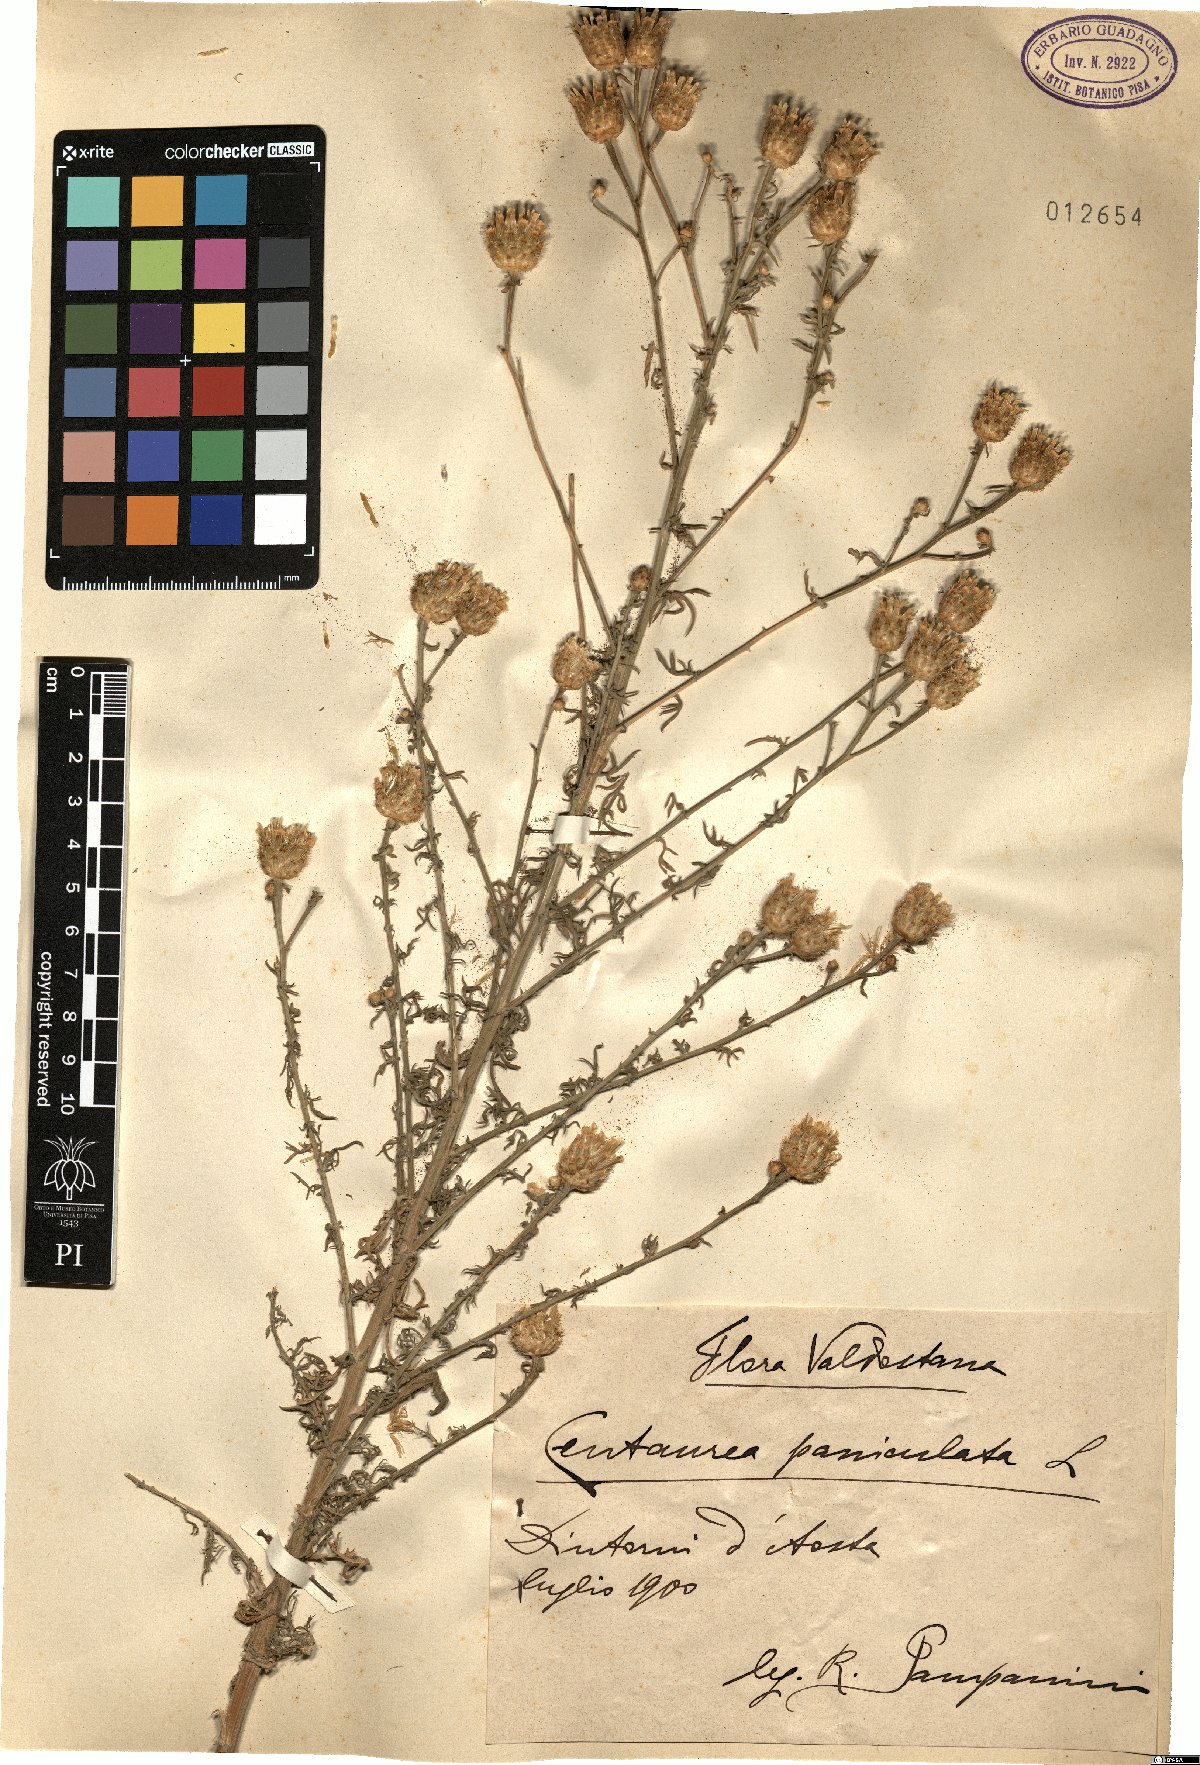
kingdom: Plantae
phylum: Tracheophyta
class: Magnoliopsida
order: Asterales
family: Asteraceae
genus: Centaurea
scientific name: Centaurea paniculata
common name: Jersey knapweed
